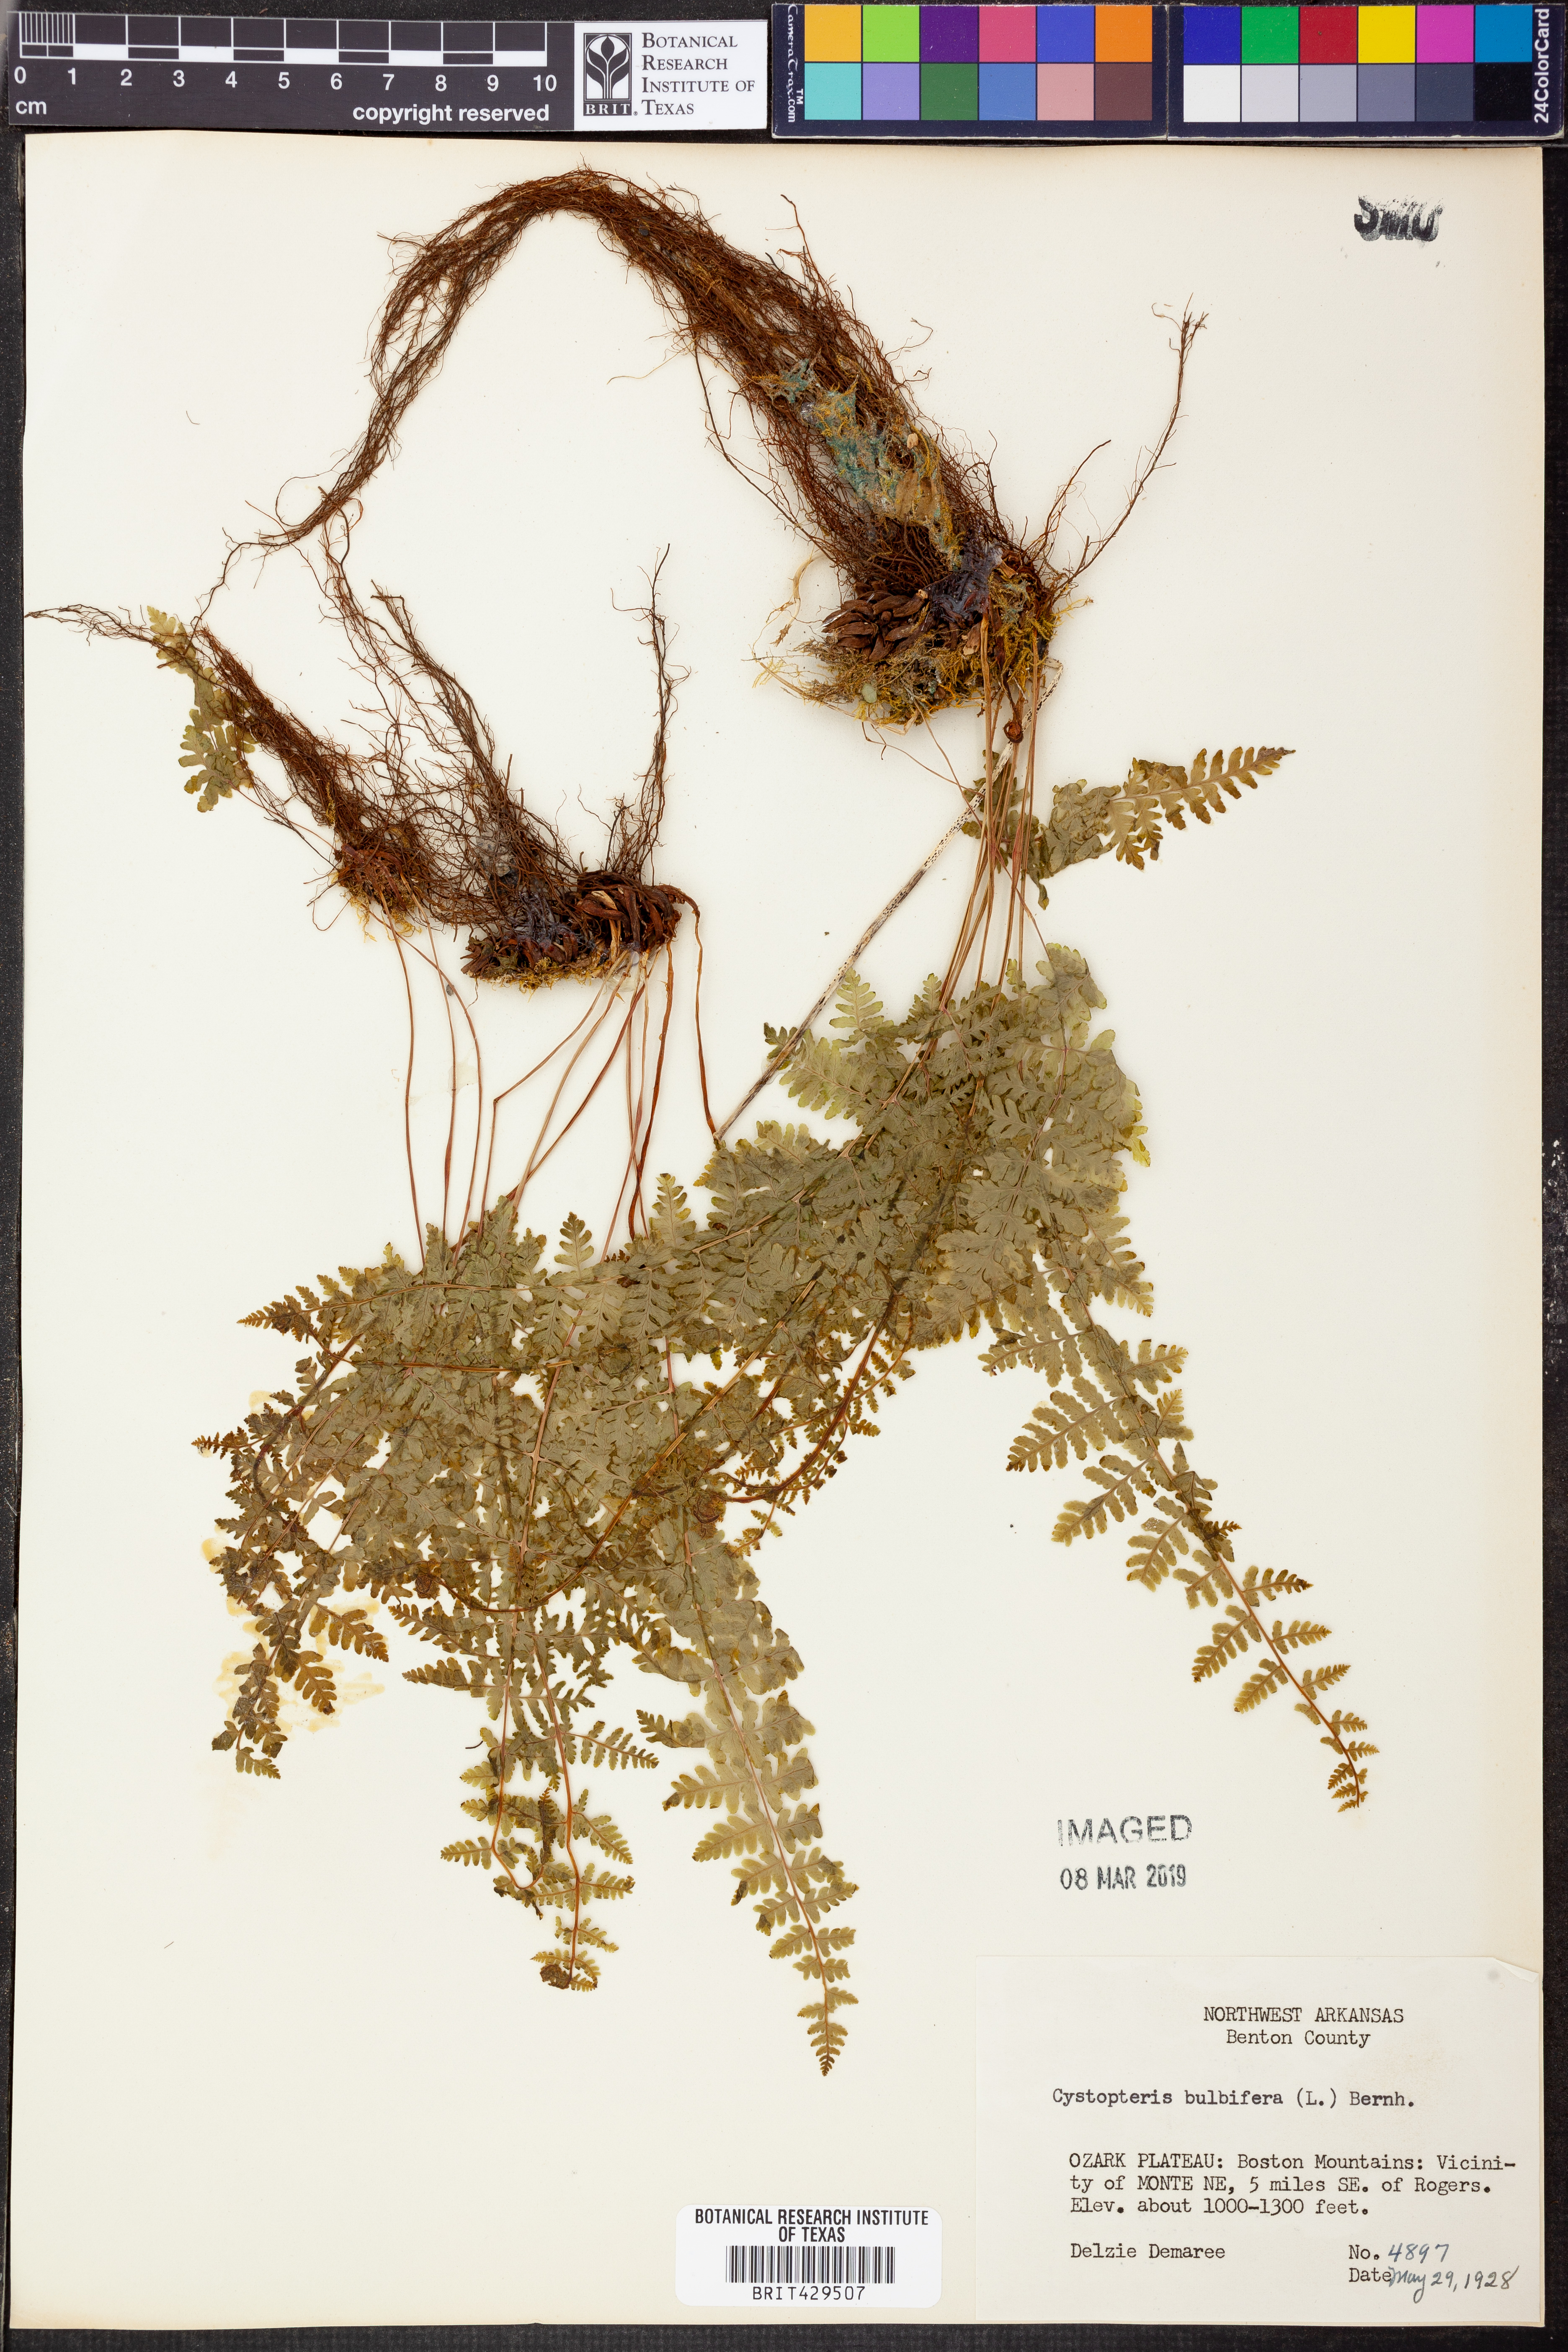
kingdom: Plantae
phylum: Tracheophyta
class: Polypodiopsida
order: Polypodiales
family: Cystopteridaceae
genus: Cystopteris
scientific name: Cystopteris bulbifera
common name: Bulblet bladder fern
